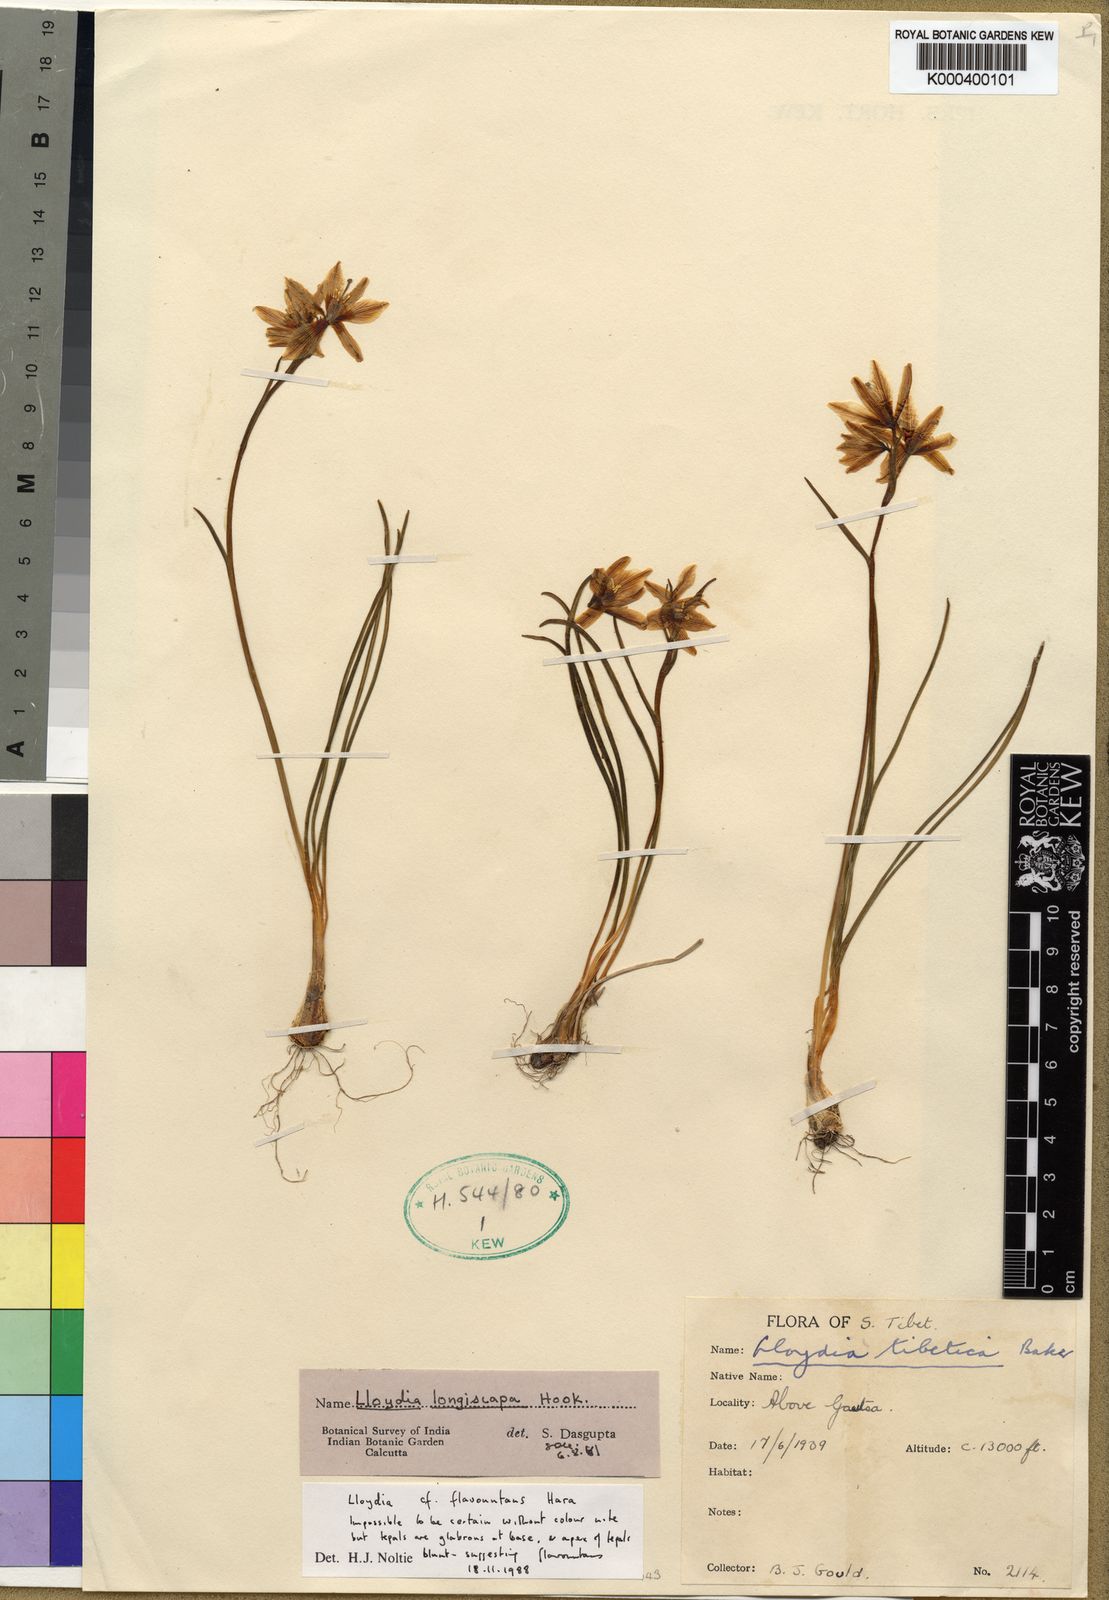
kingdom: Plantae
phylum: Tracheophyta
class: Liliopsida
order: Liliales
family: Liliaceae
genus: Gagea
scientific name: Gagea flavonutans
